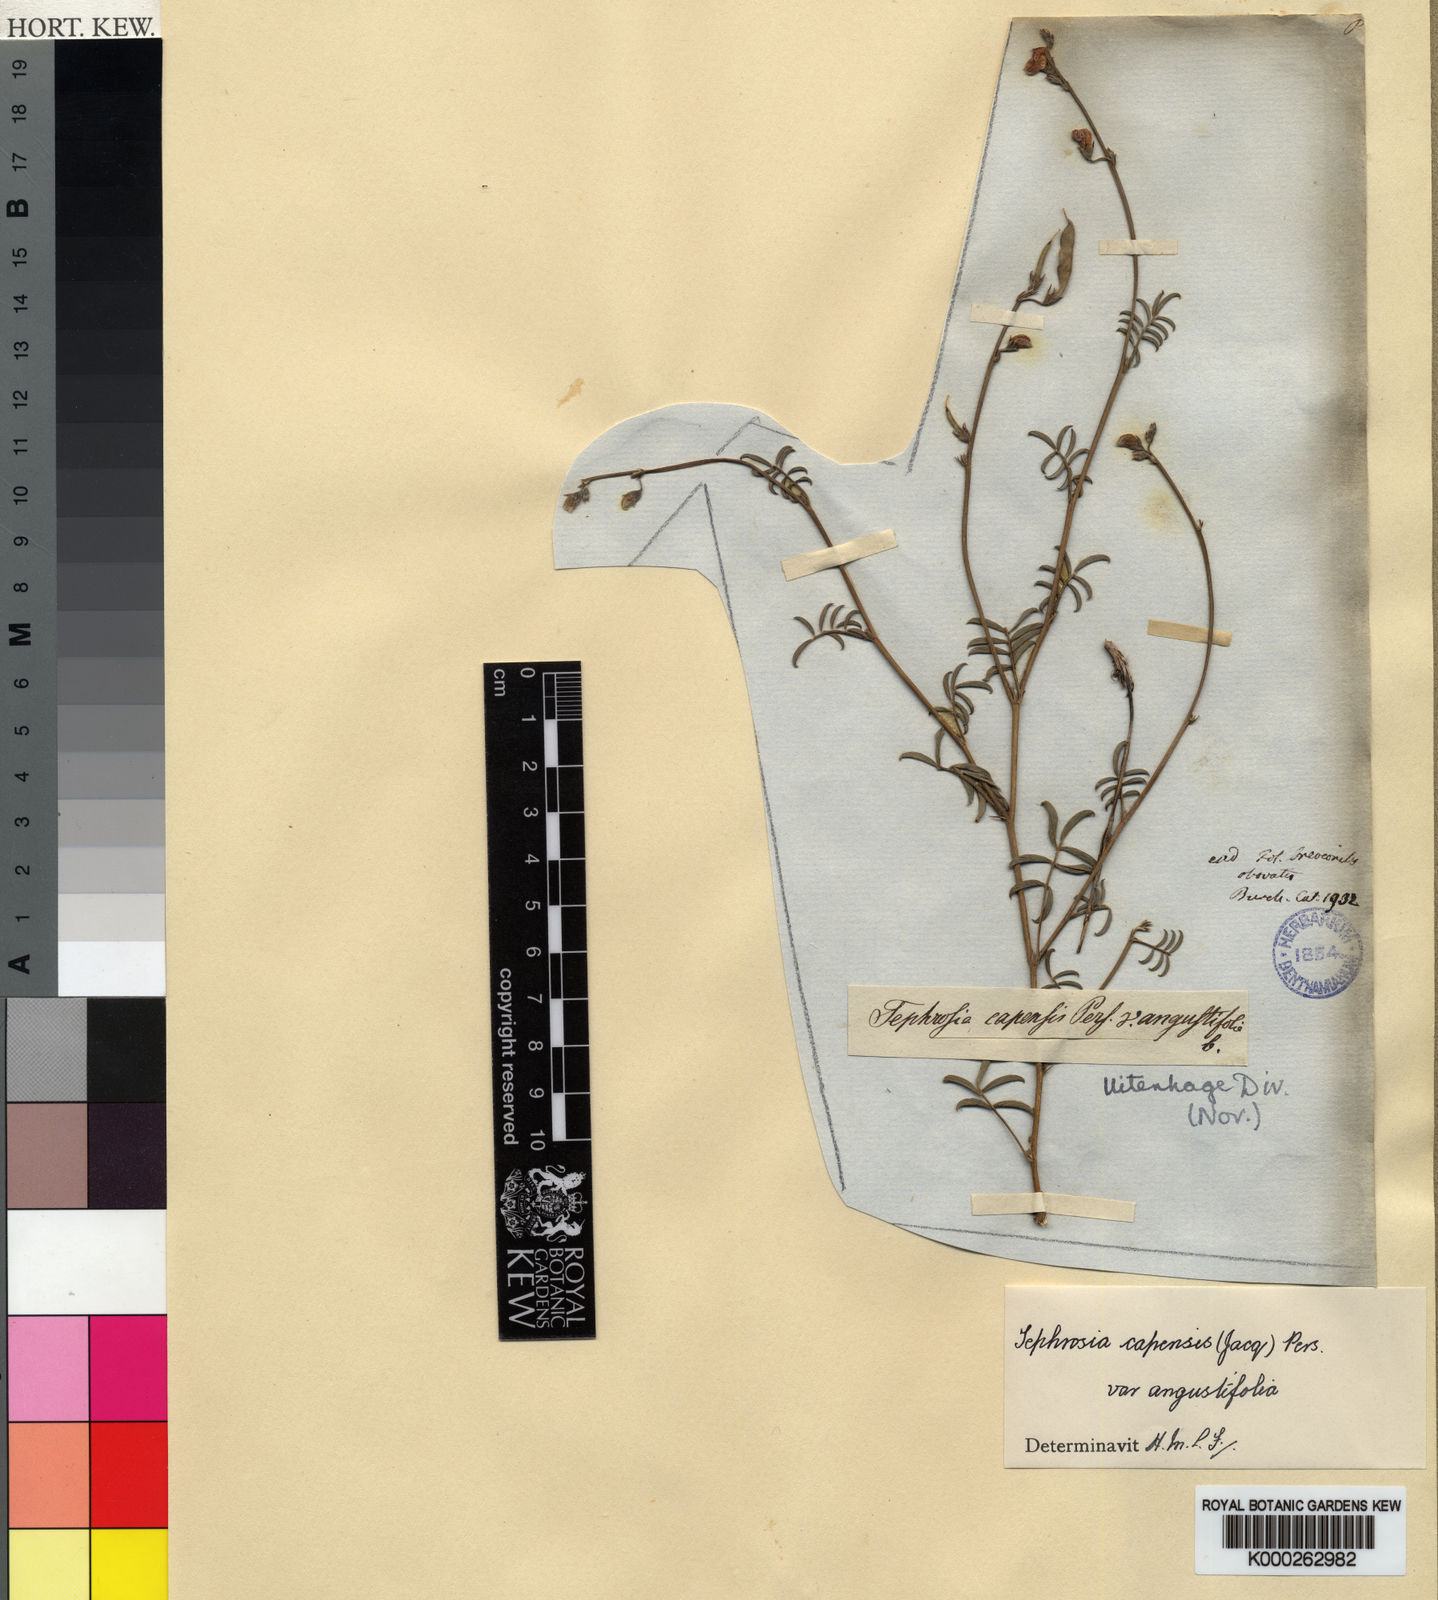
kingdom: Plantae
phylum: Tracheophyta
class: Magnoliopsida
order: Fabales
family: Fabaceae
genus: Tephrosia
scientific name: Tephrosia capensis
